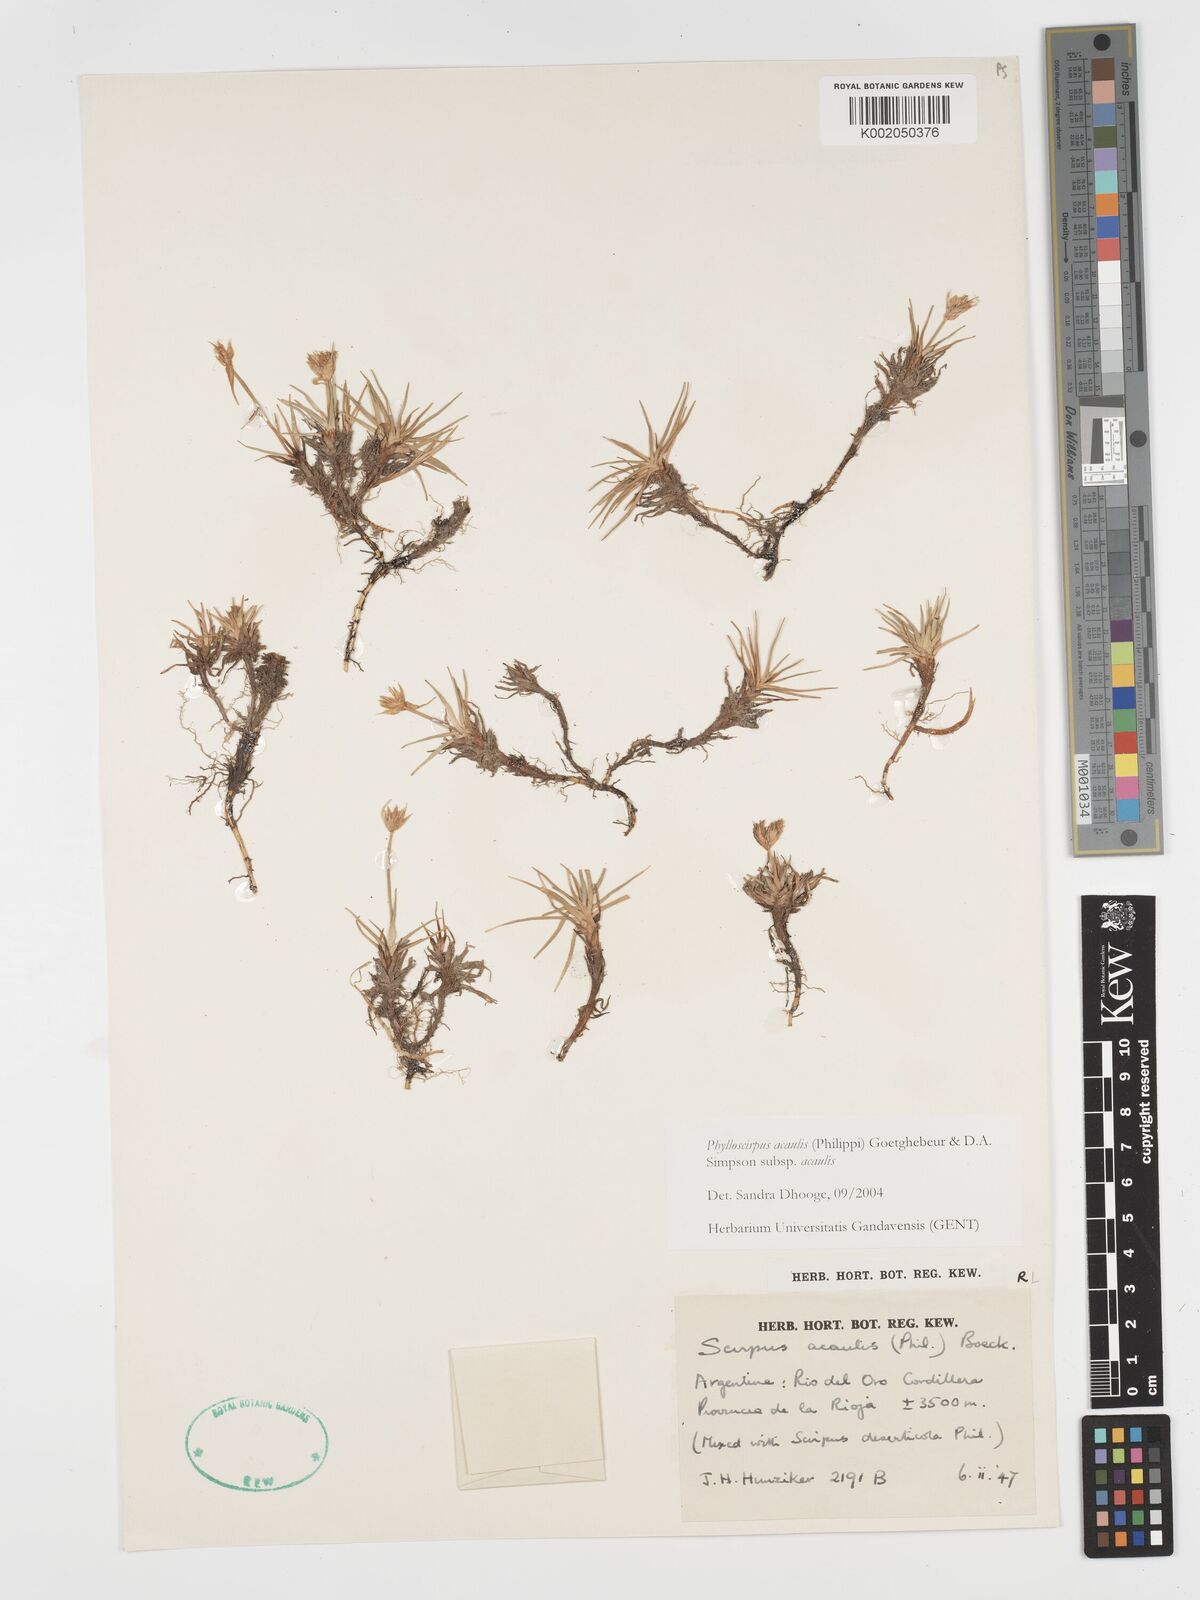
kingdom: Plantae
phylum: Tracheophyta
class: Liliopsida
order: Poales
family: Cyperaceae
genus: Phylloscirpus
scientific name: Phylloscirpus acaulis
